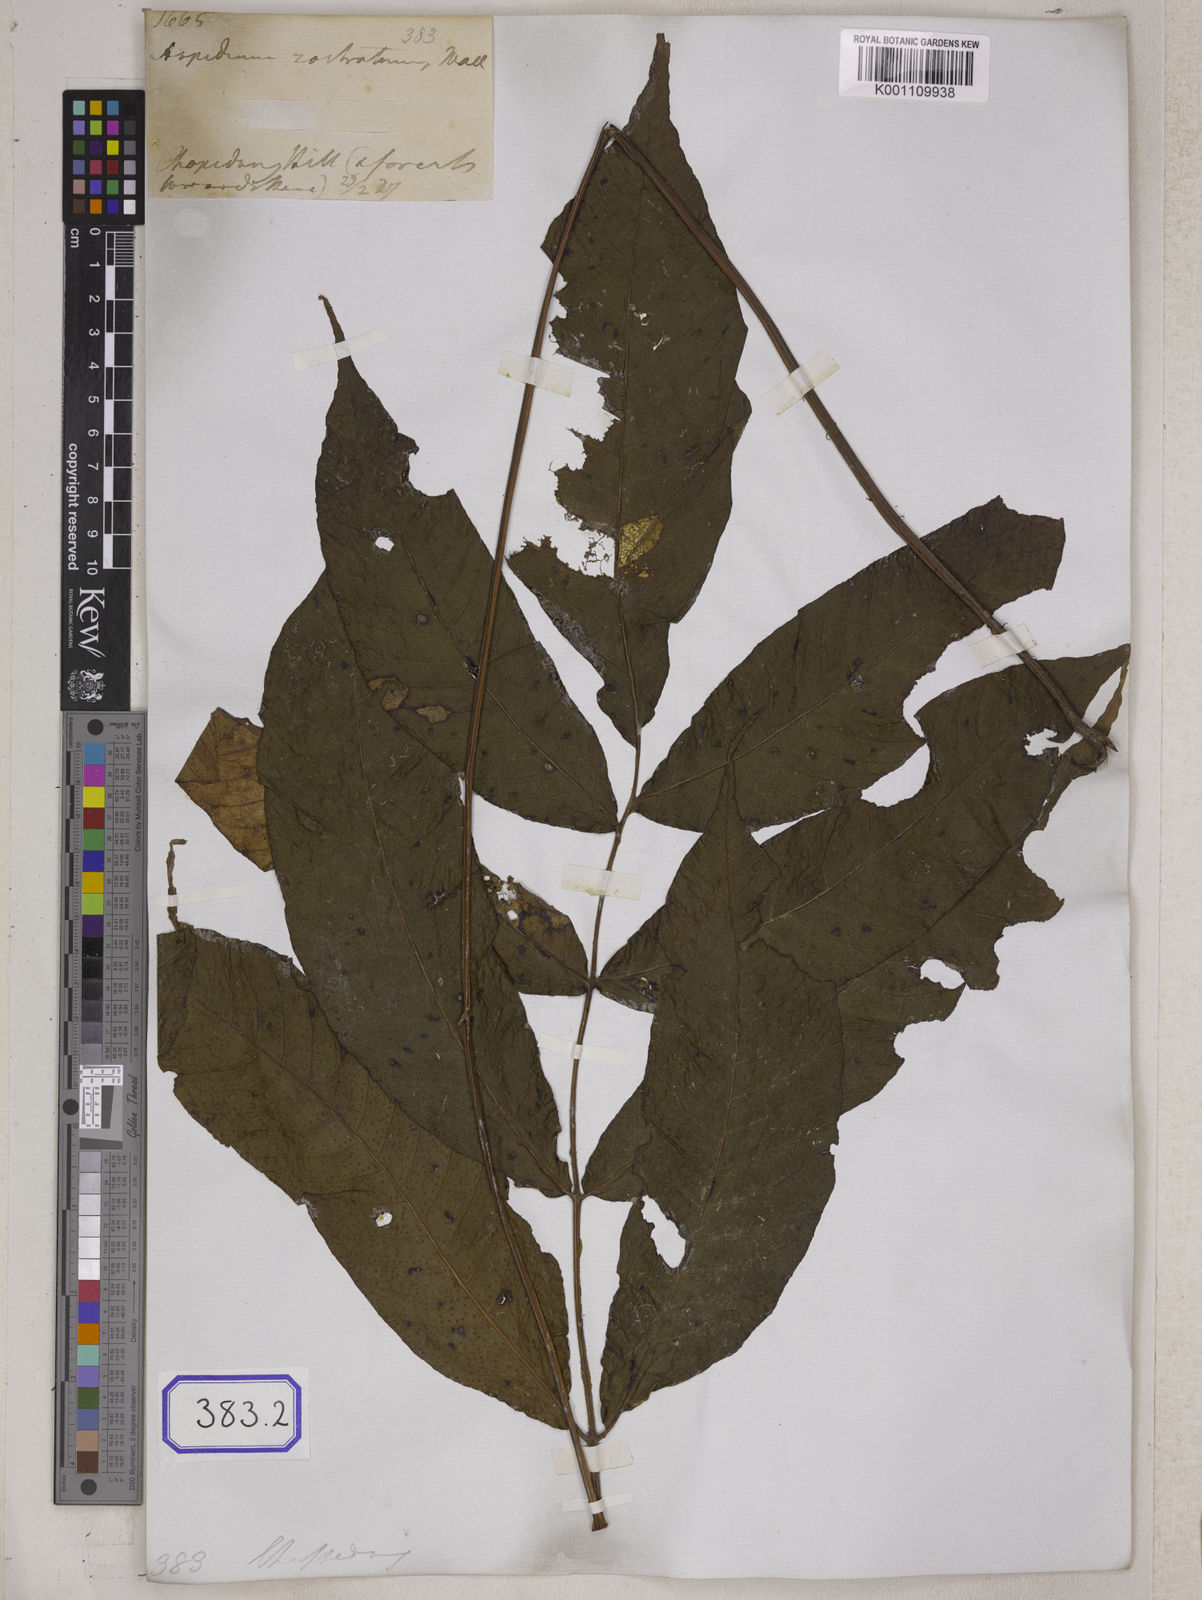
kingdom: Plantae
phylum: Tracheophyta
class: Polypodiopsida
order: Polypodiales
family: Tectariaceae
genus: Tectaria
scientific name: Tectaria polymorpha
